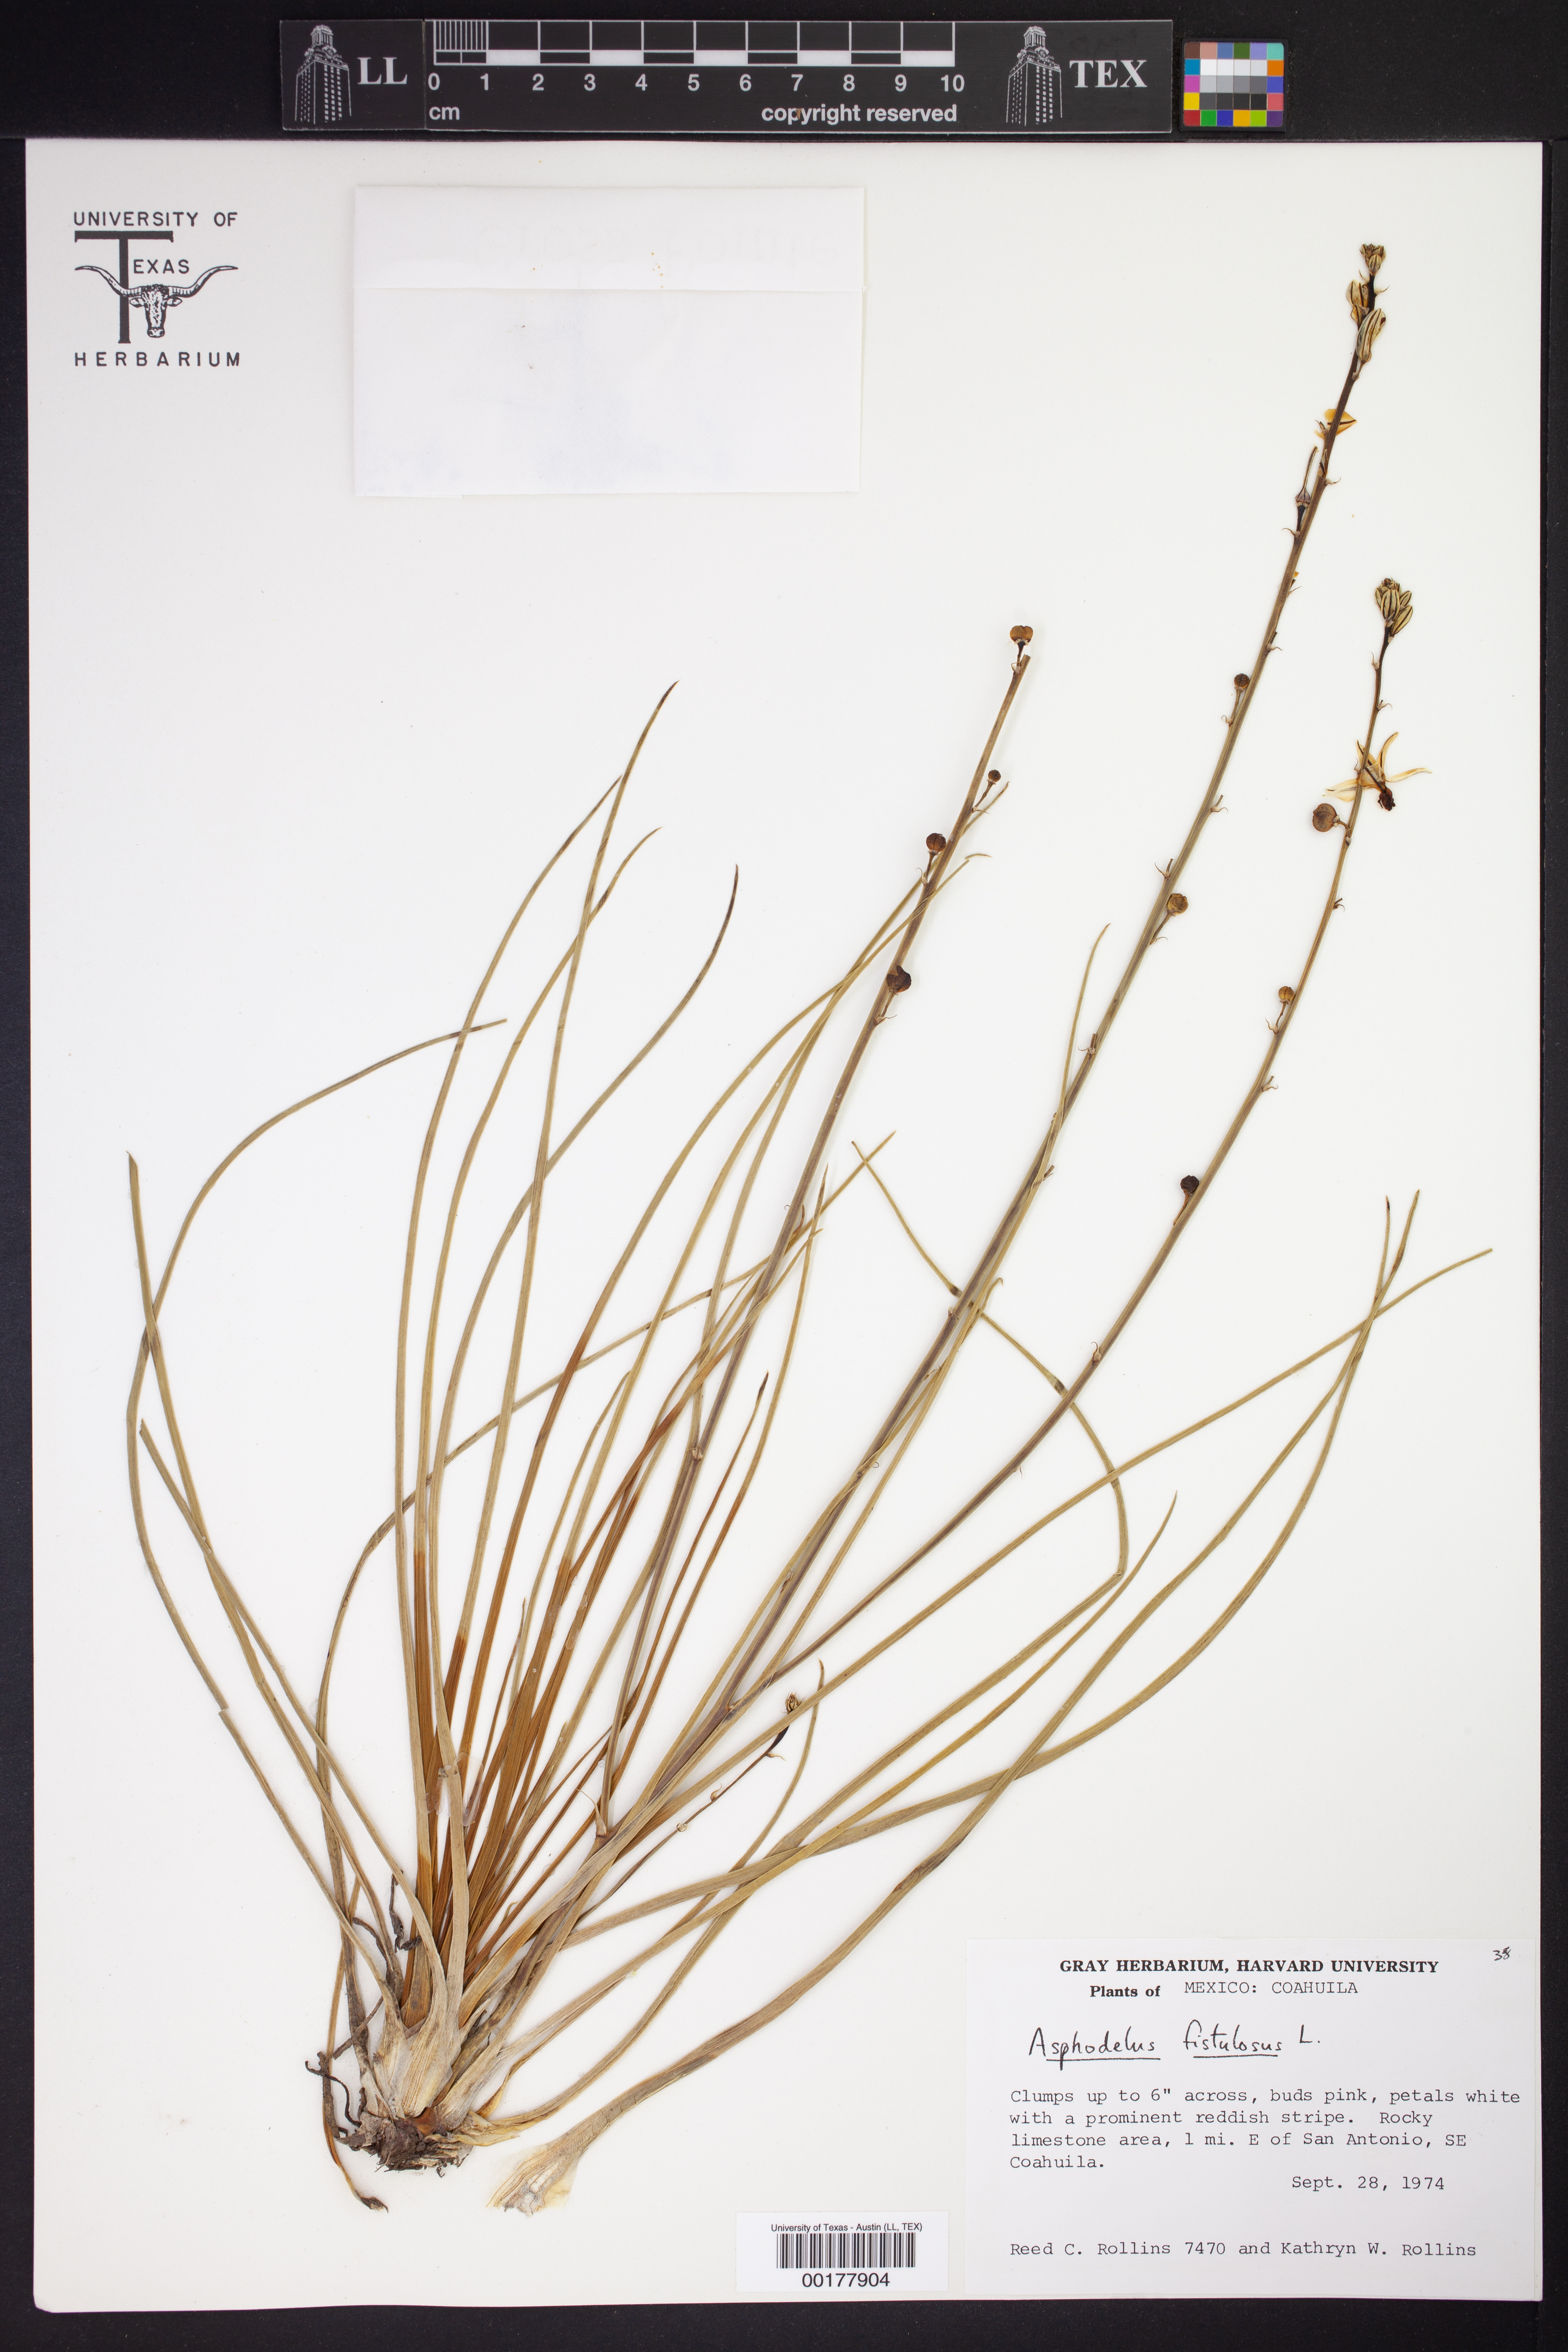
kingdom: Plantae
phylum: Tracheophyta
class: Liliopsida
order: Asparagales
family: Asphodelaceae
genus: Asphodelus
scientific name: Asphodelus fistulosus
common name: Onionweed
